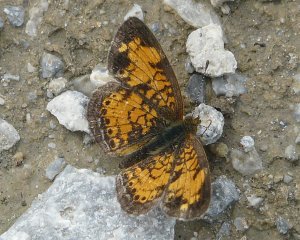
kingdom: Animalia
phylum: Arthropoda
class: Insecta
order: Lepidoptera
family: Nymphalidae
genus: Phyciodes
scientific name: Phyciodes tharos
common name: Pearl Crescent
